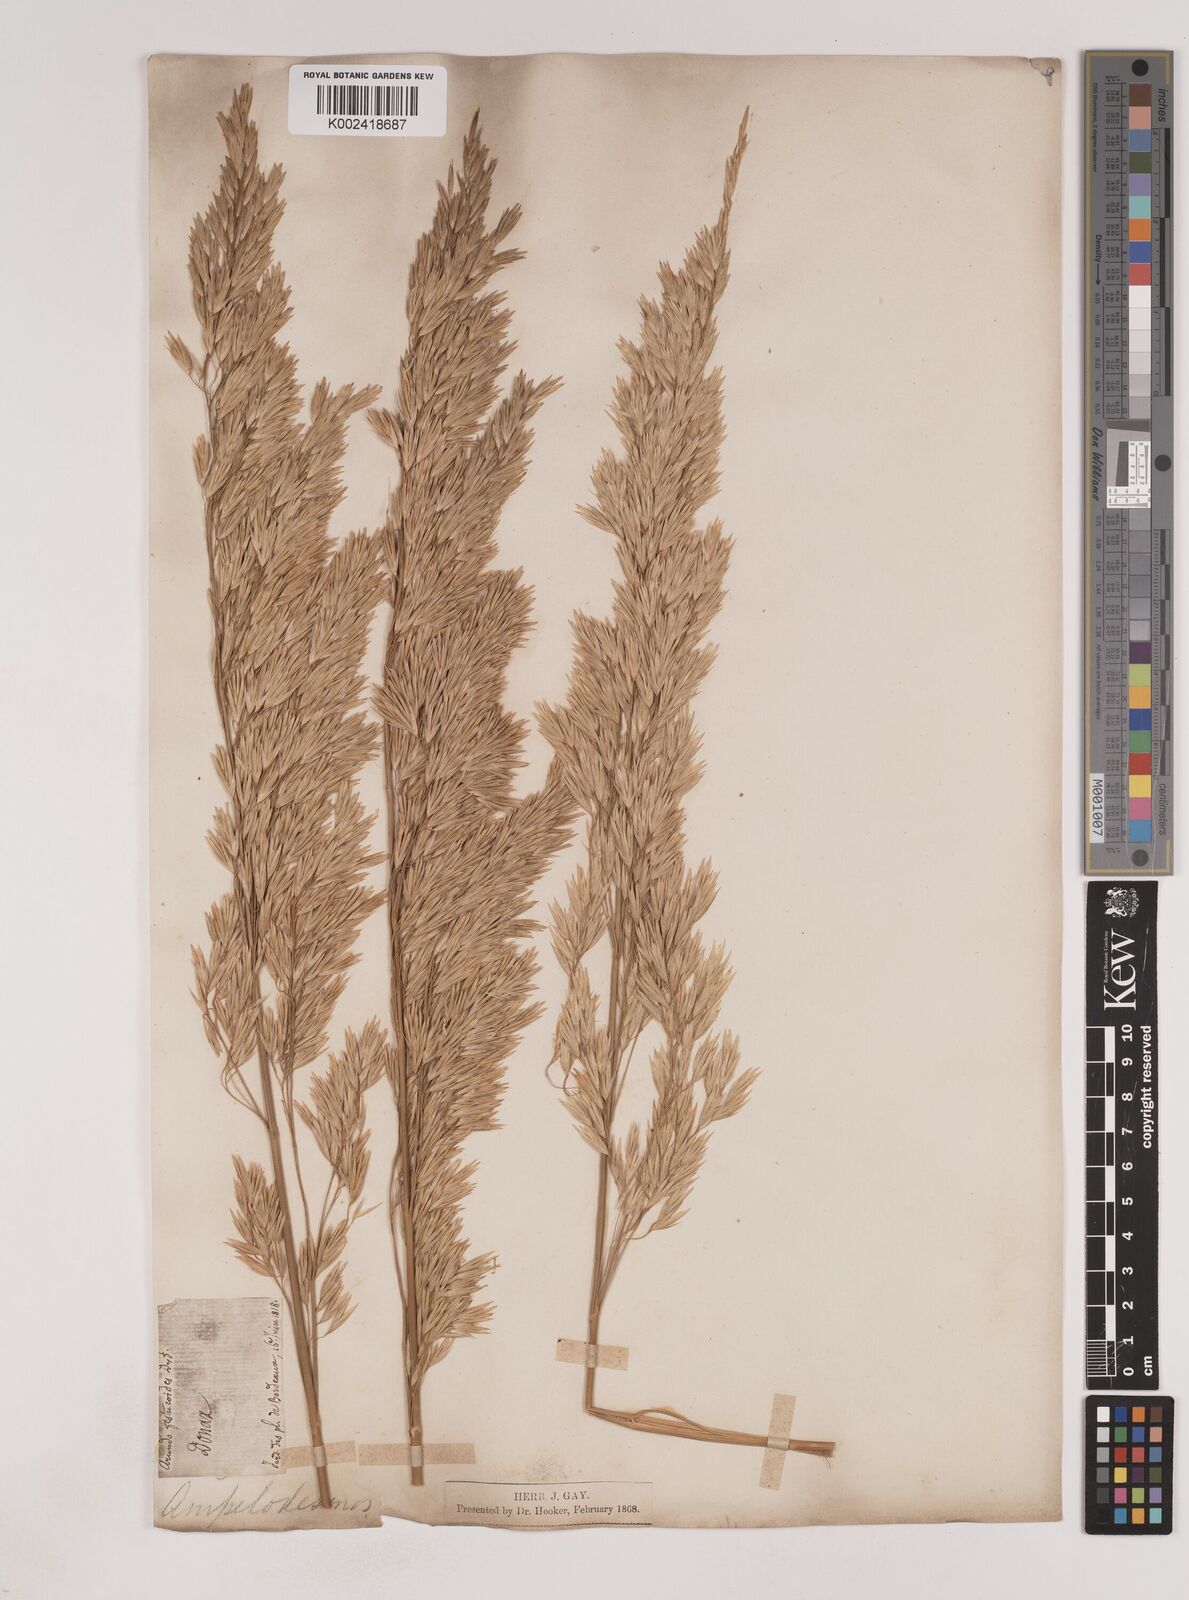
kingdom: Plantae
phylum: Tracheophyta
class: Liliopsida
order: Poales
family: Poaceae
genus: Ampelodesmos
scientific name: Ampelodesmos mauritanicus
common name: Mauritanian grass
